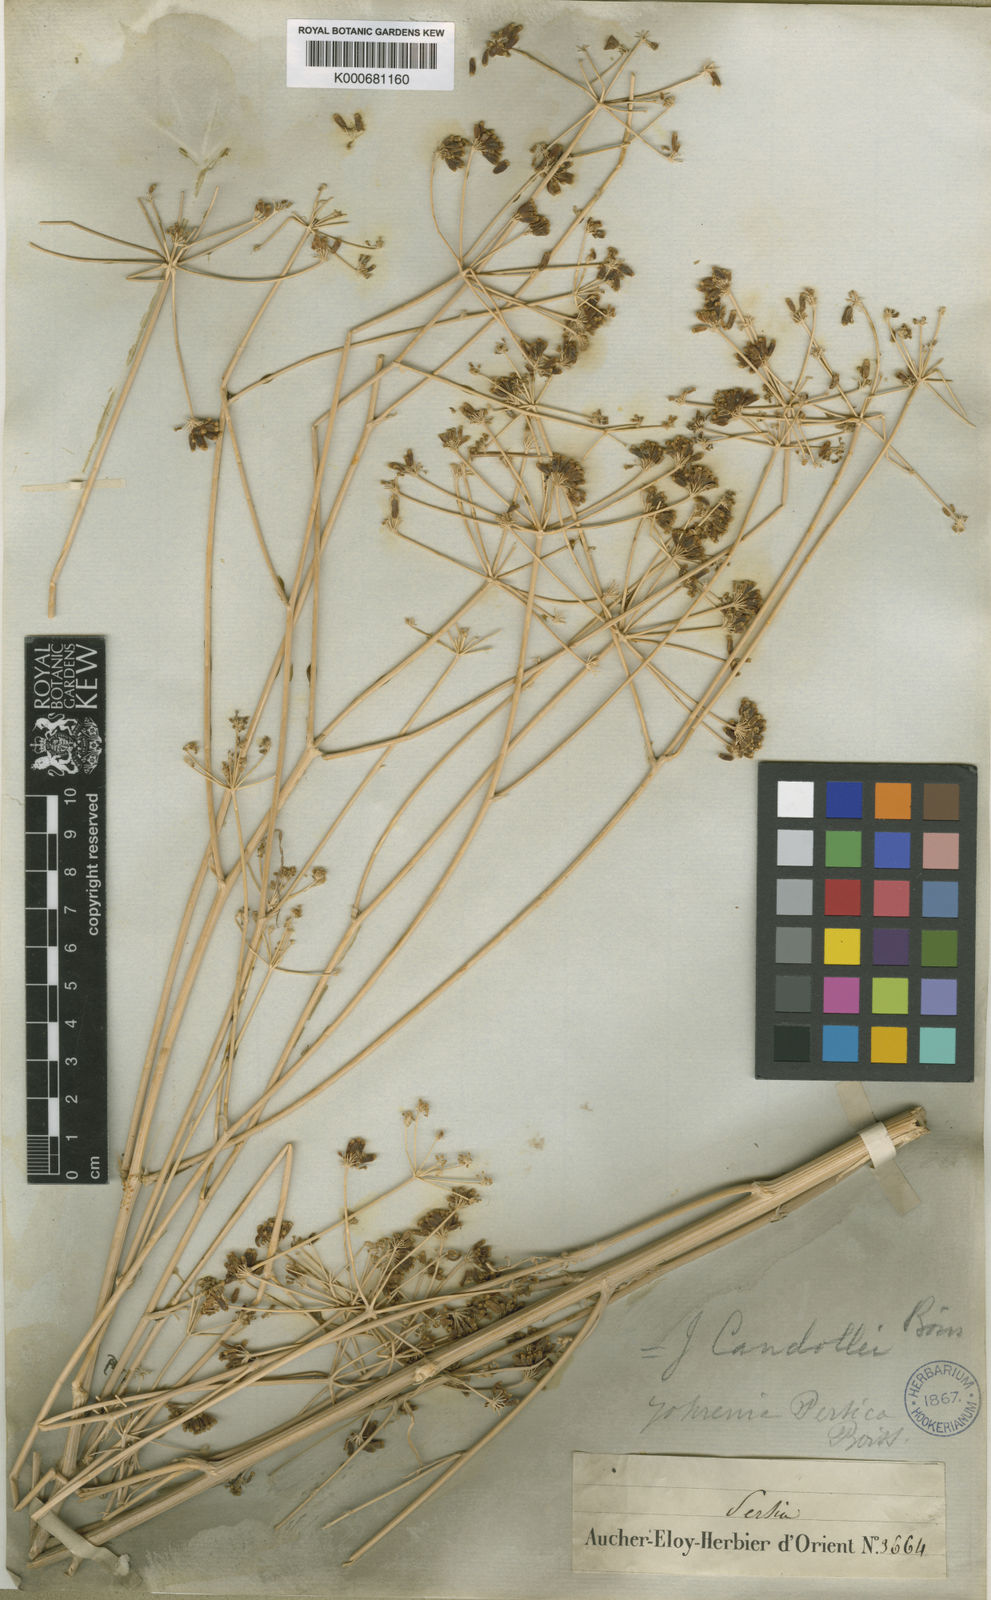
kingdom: Plantae
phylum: Tracheophyta
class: Magnoliopsida
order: Apiales
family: Apiaceae
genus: Dichoropetalum
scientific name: Dichoropetalum paucijugum
